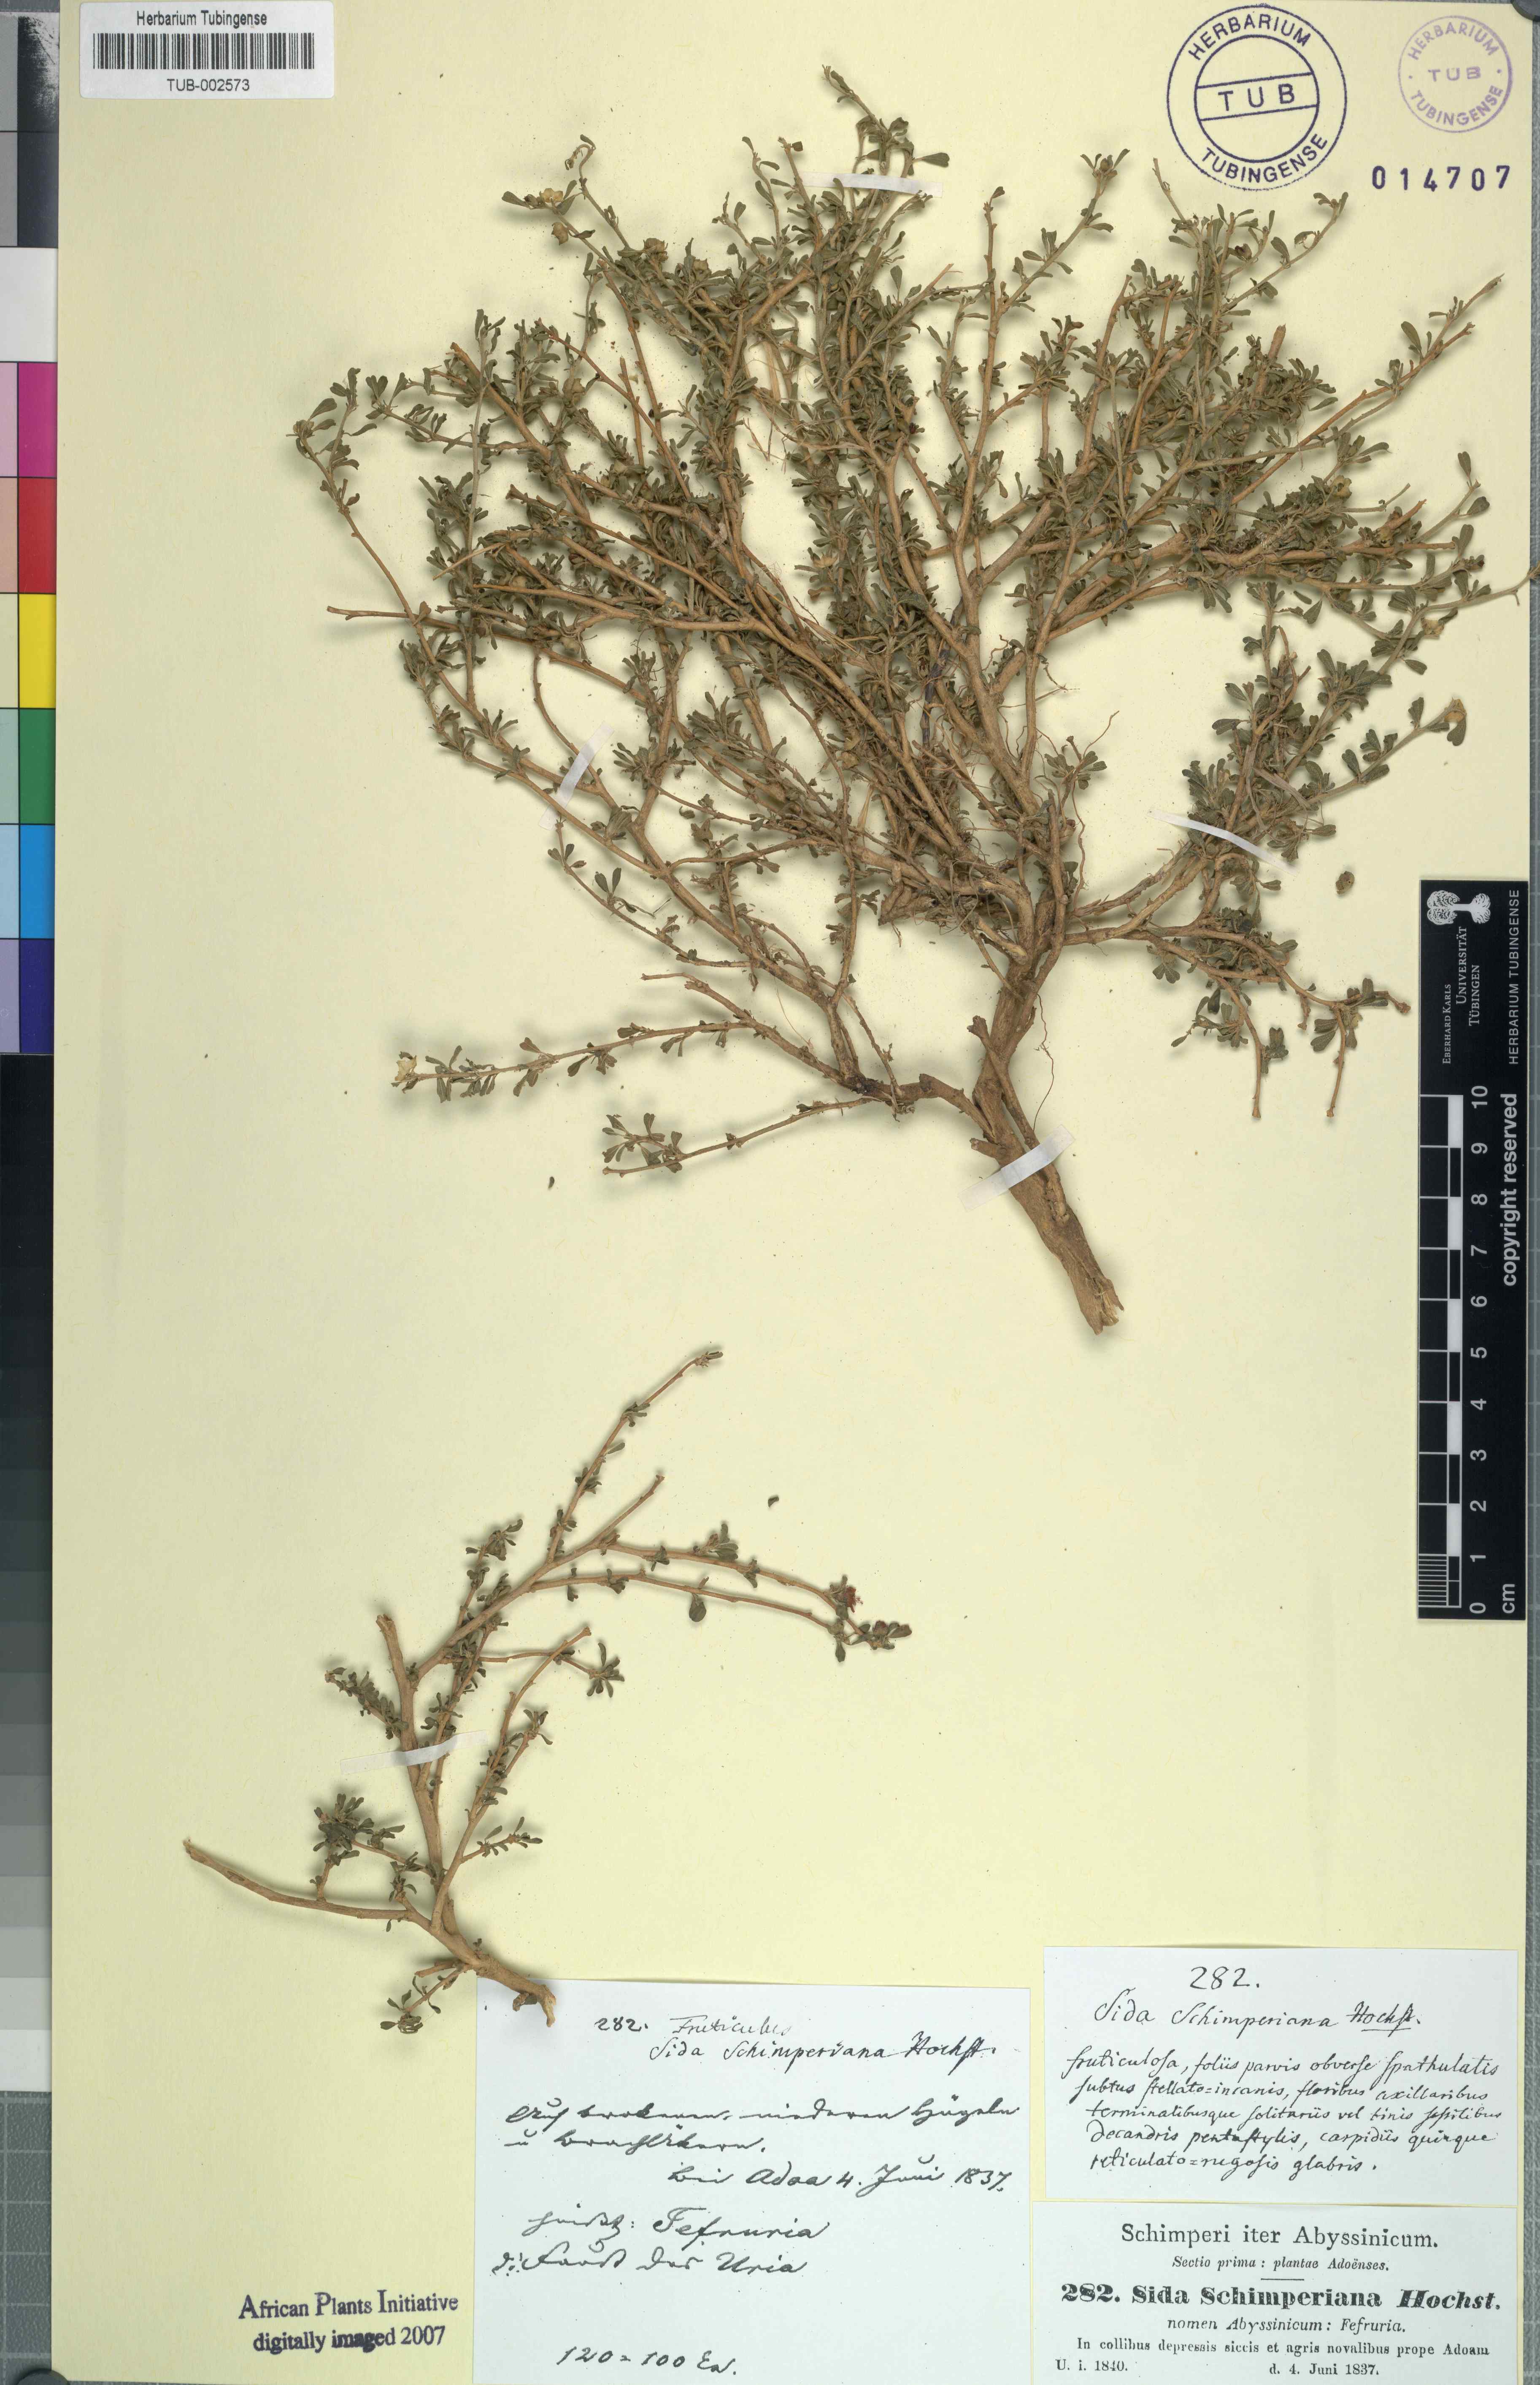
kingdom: Plantae
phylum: Tracheophyta
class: Magnoliopsida
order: Malvales
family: Malvaceae
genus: Sida
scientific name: Sida schimperiana
